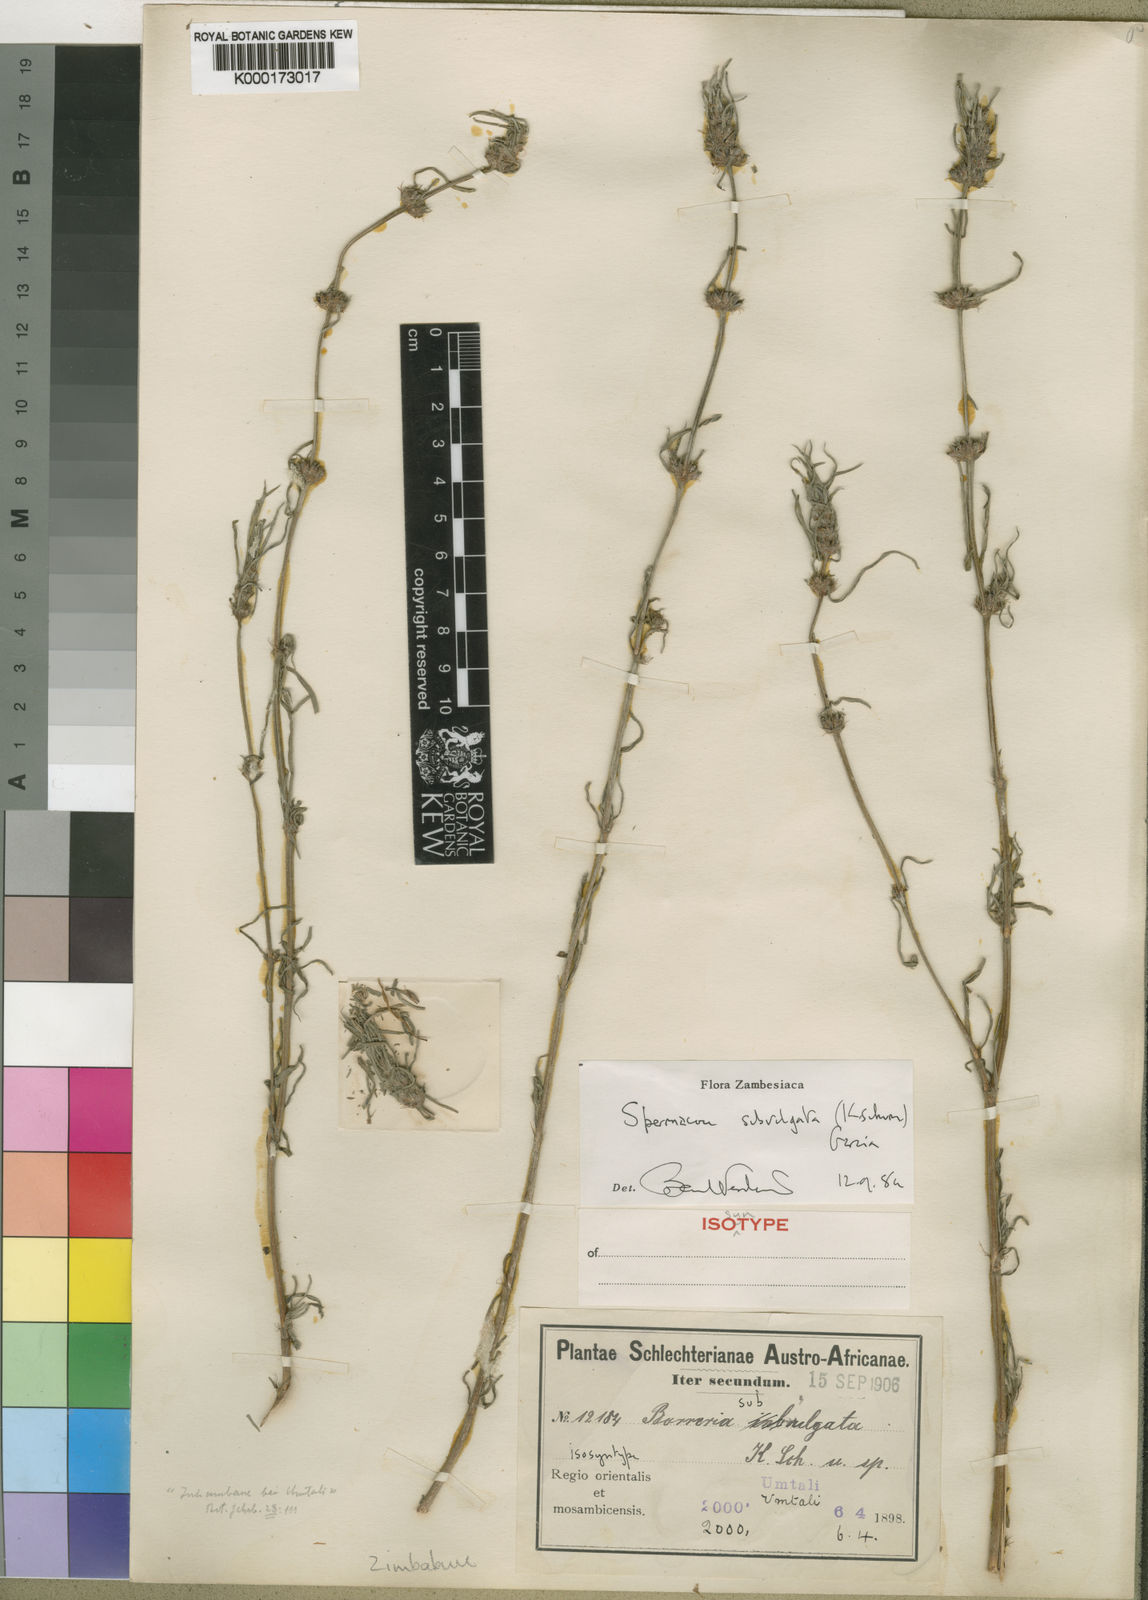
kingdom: Plantae
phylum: Tracheophyta
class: Magnoliopsida
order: Gentianales
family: Rubiaceae
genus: Spermacoce
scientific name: Spermacoce
